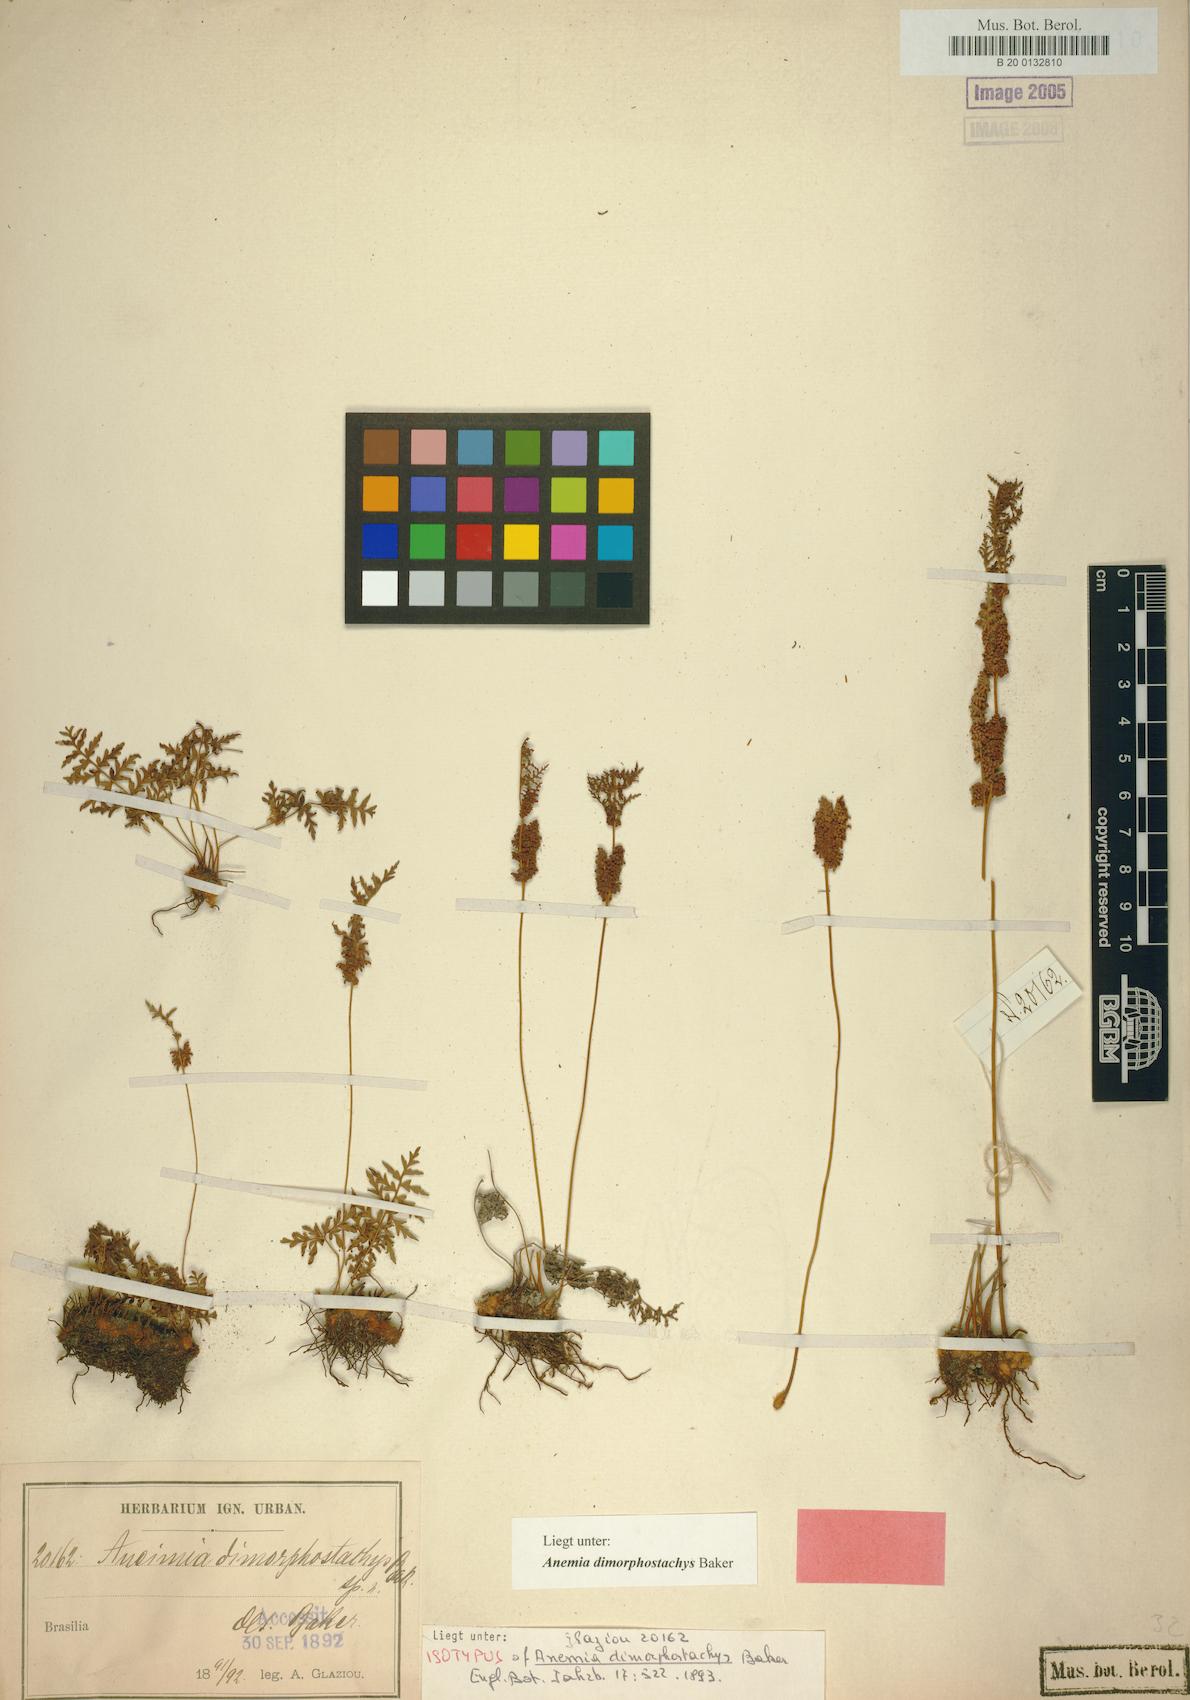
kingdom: Plantae
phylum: Tracheophyta
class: Polypodiopsida
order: Schizaeales
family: Anemiaceae
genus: Anemia
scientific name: Anemia rutifolia
